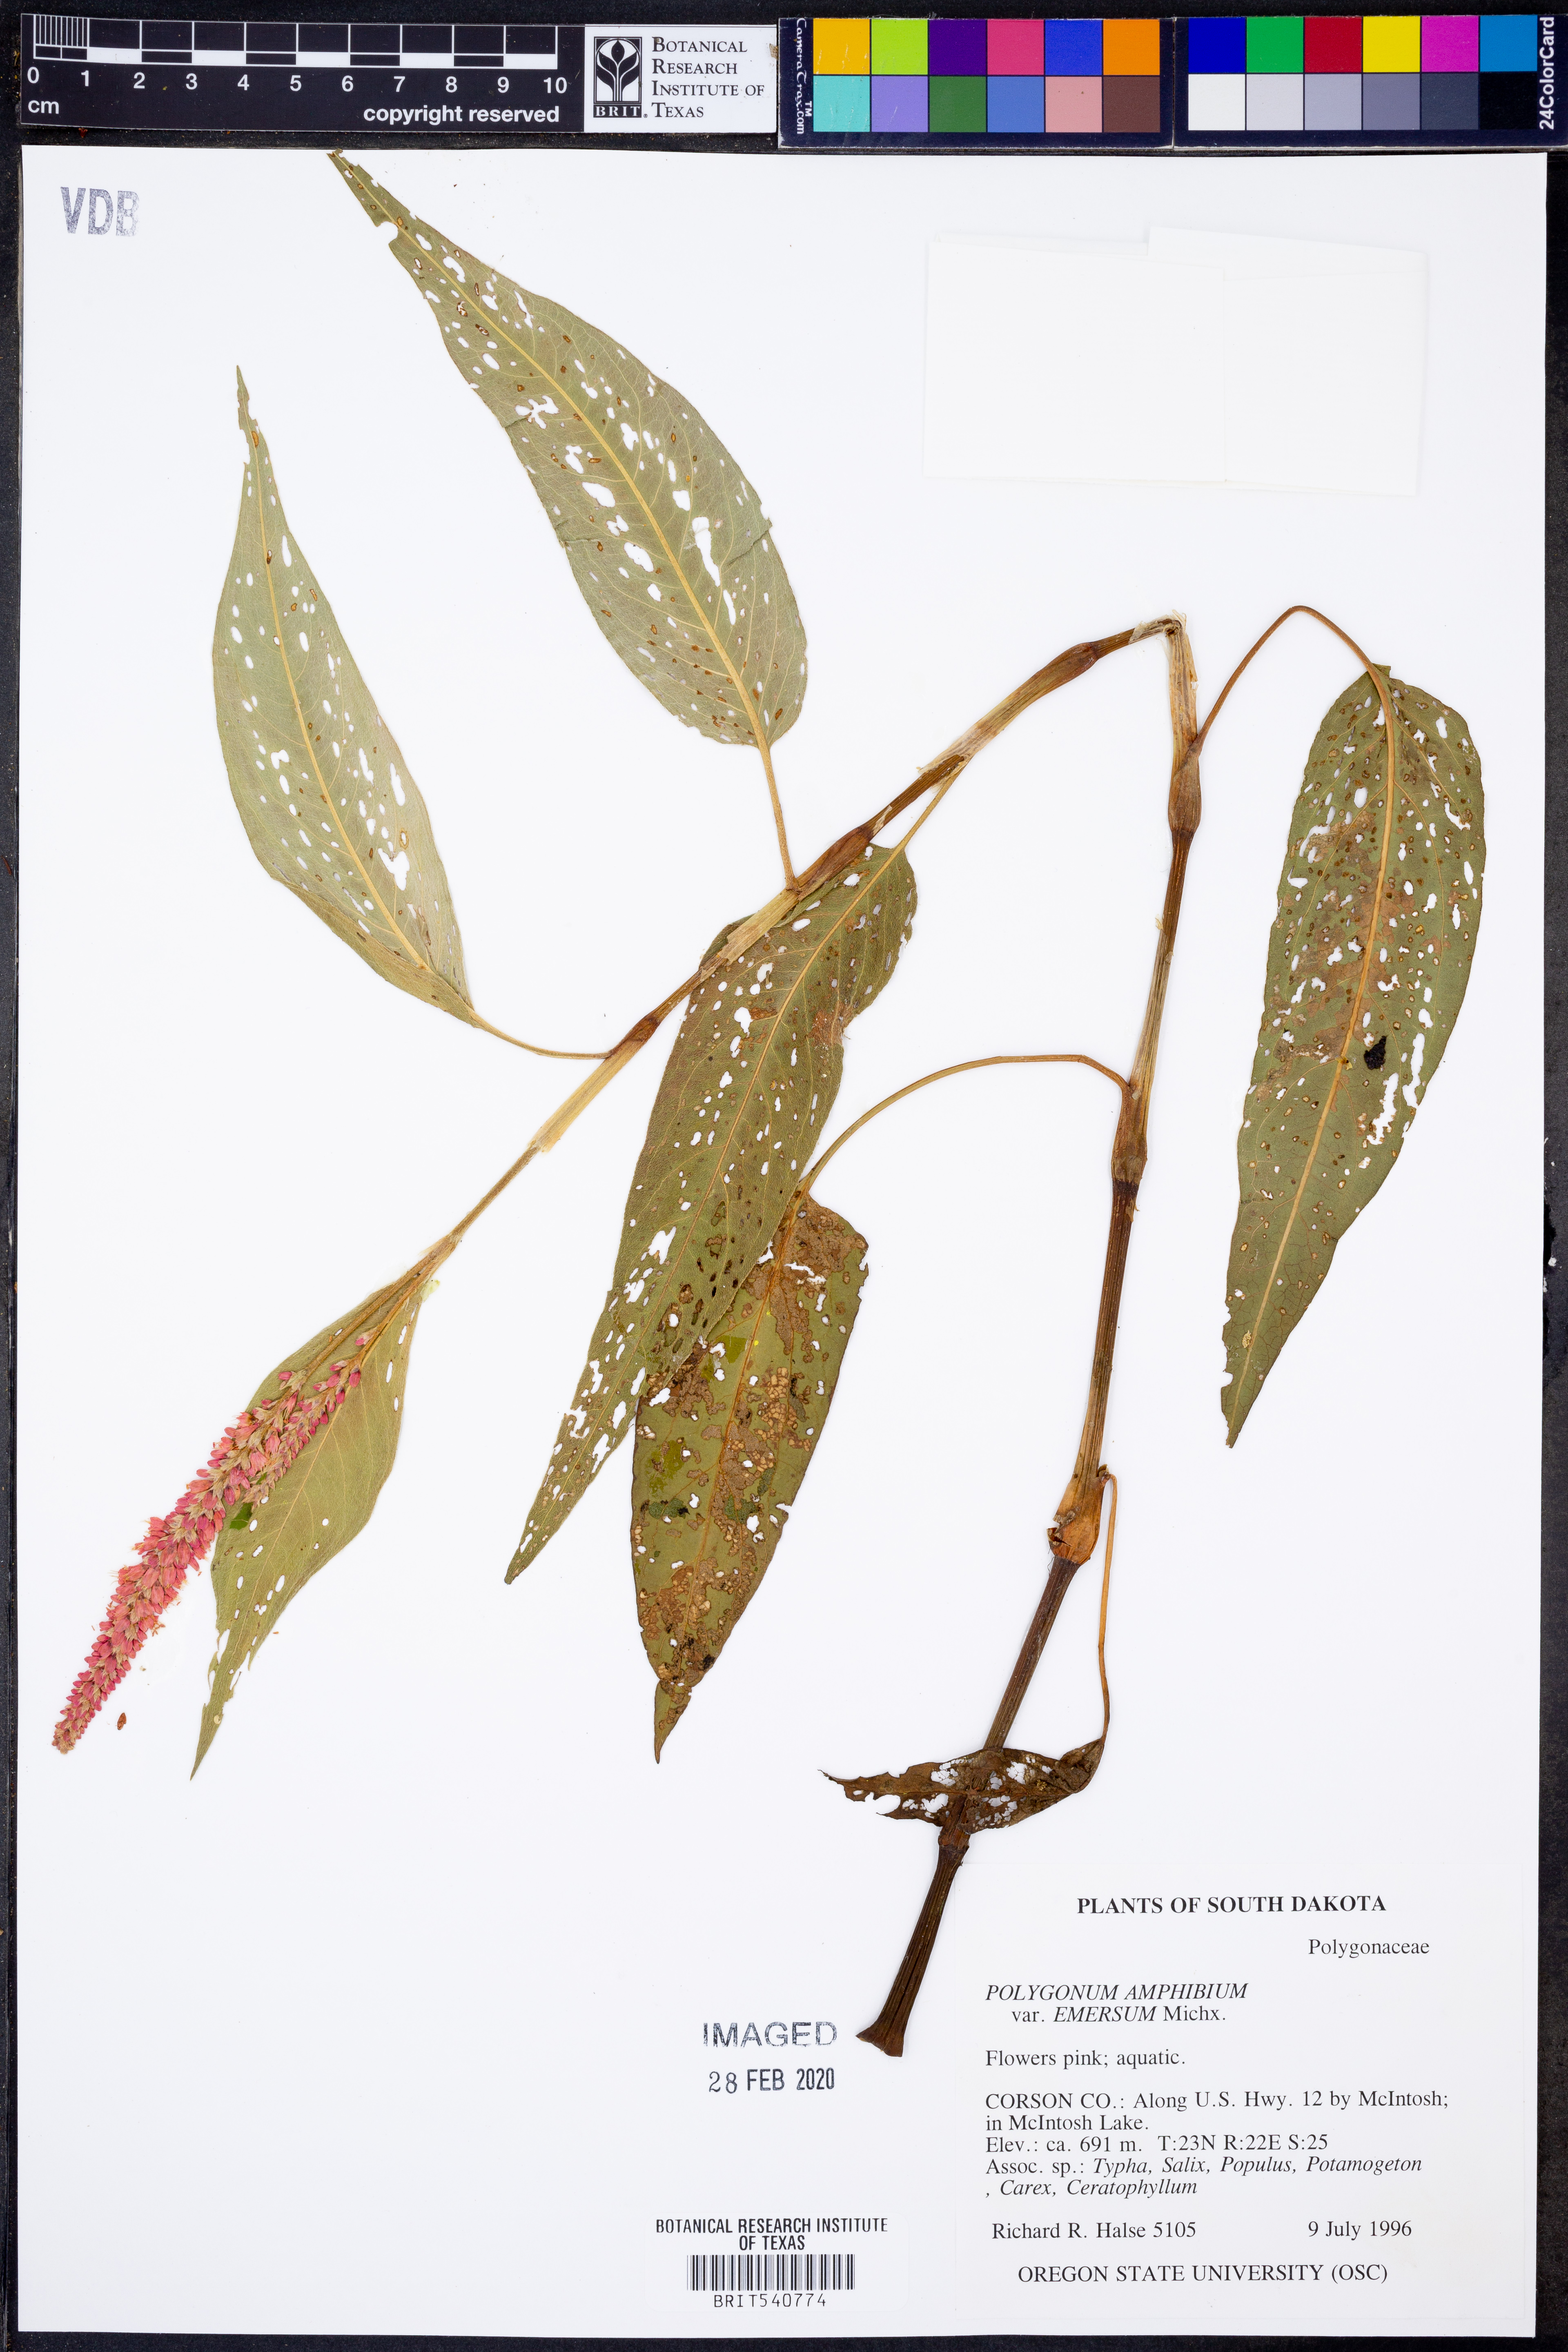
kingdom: Plantae
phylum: Tracheophyta
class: Magnoliopsida
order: Caryophyllales
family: Polygonaceae
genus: Persicaria
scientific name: Persicaria amphibia
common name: Amphibious bistort
